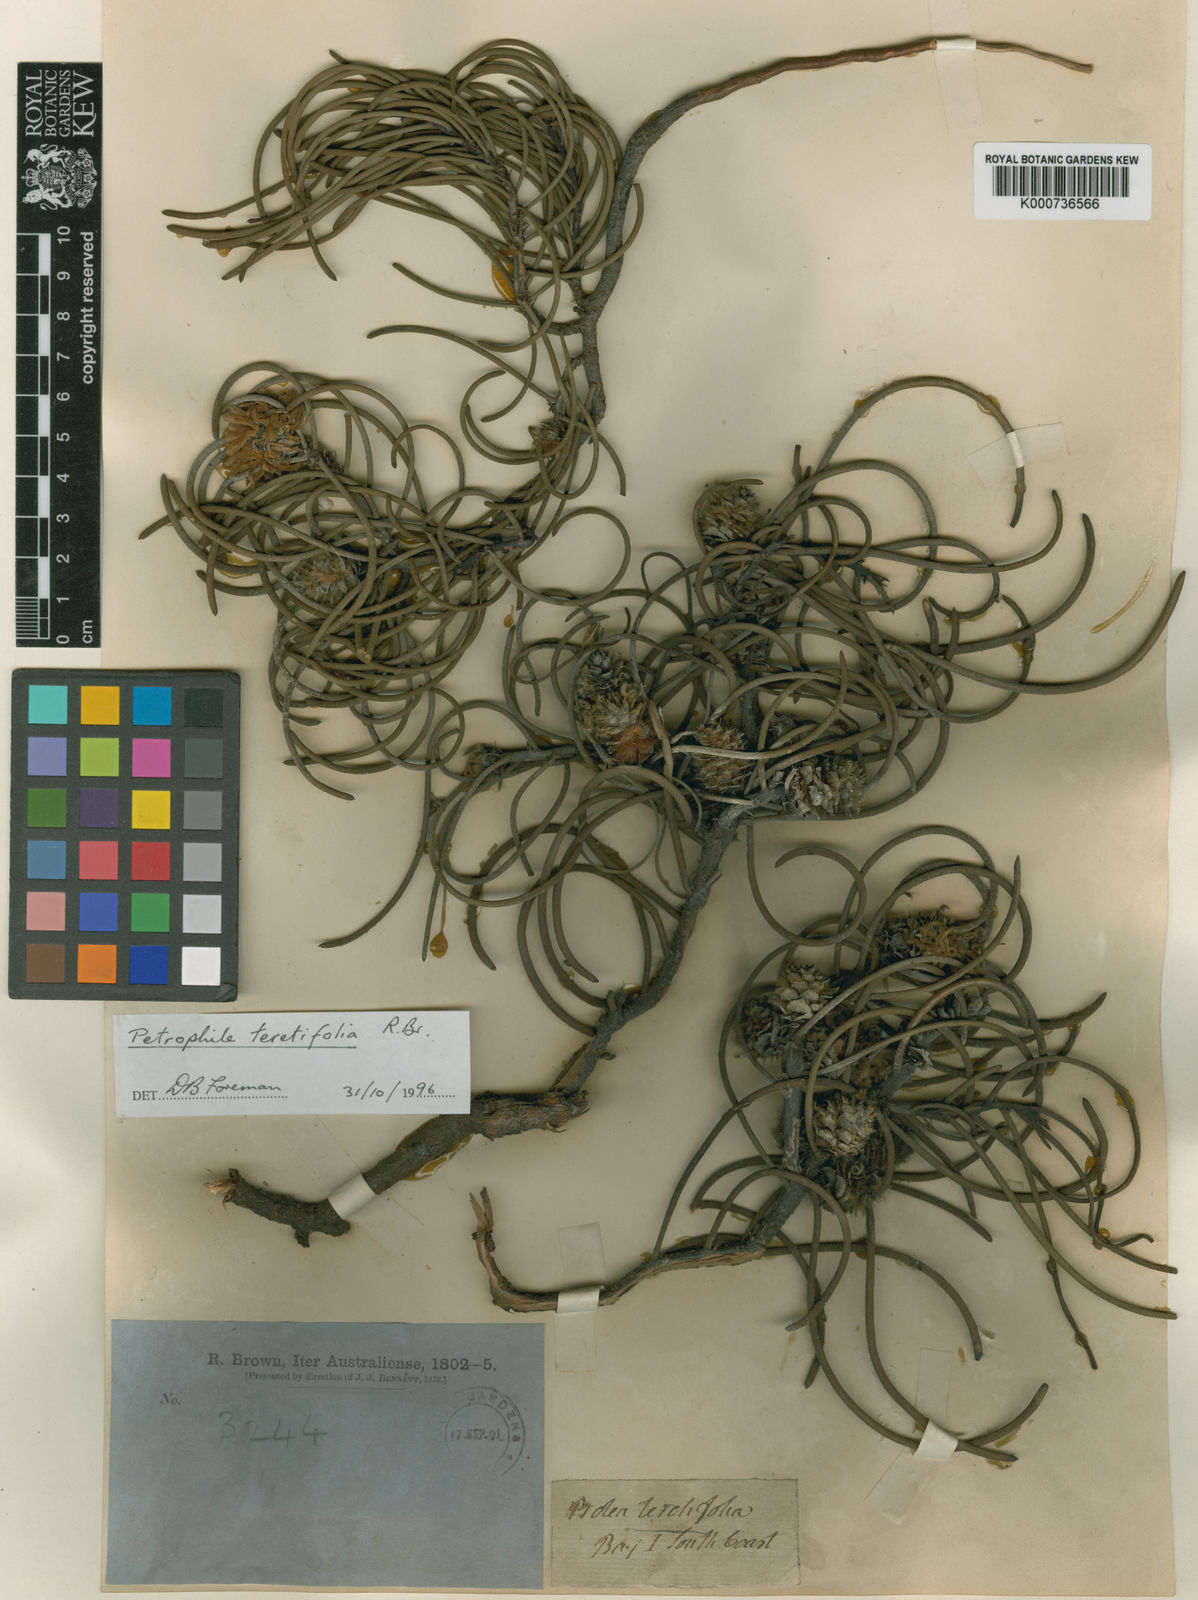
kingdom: Plantae
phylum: Tracheophyta
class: Magnoliopsida
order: Proteales
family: Proteaceae
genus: Petrophile
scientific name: Petrophile teretifolia
